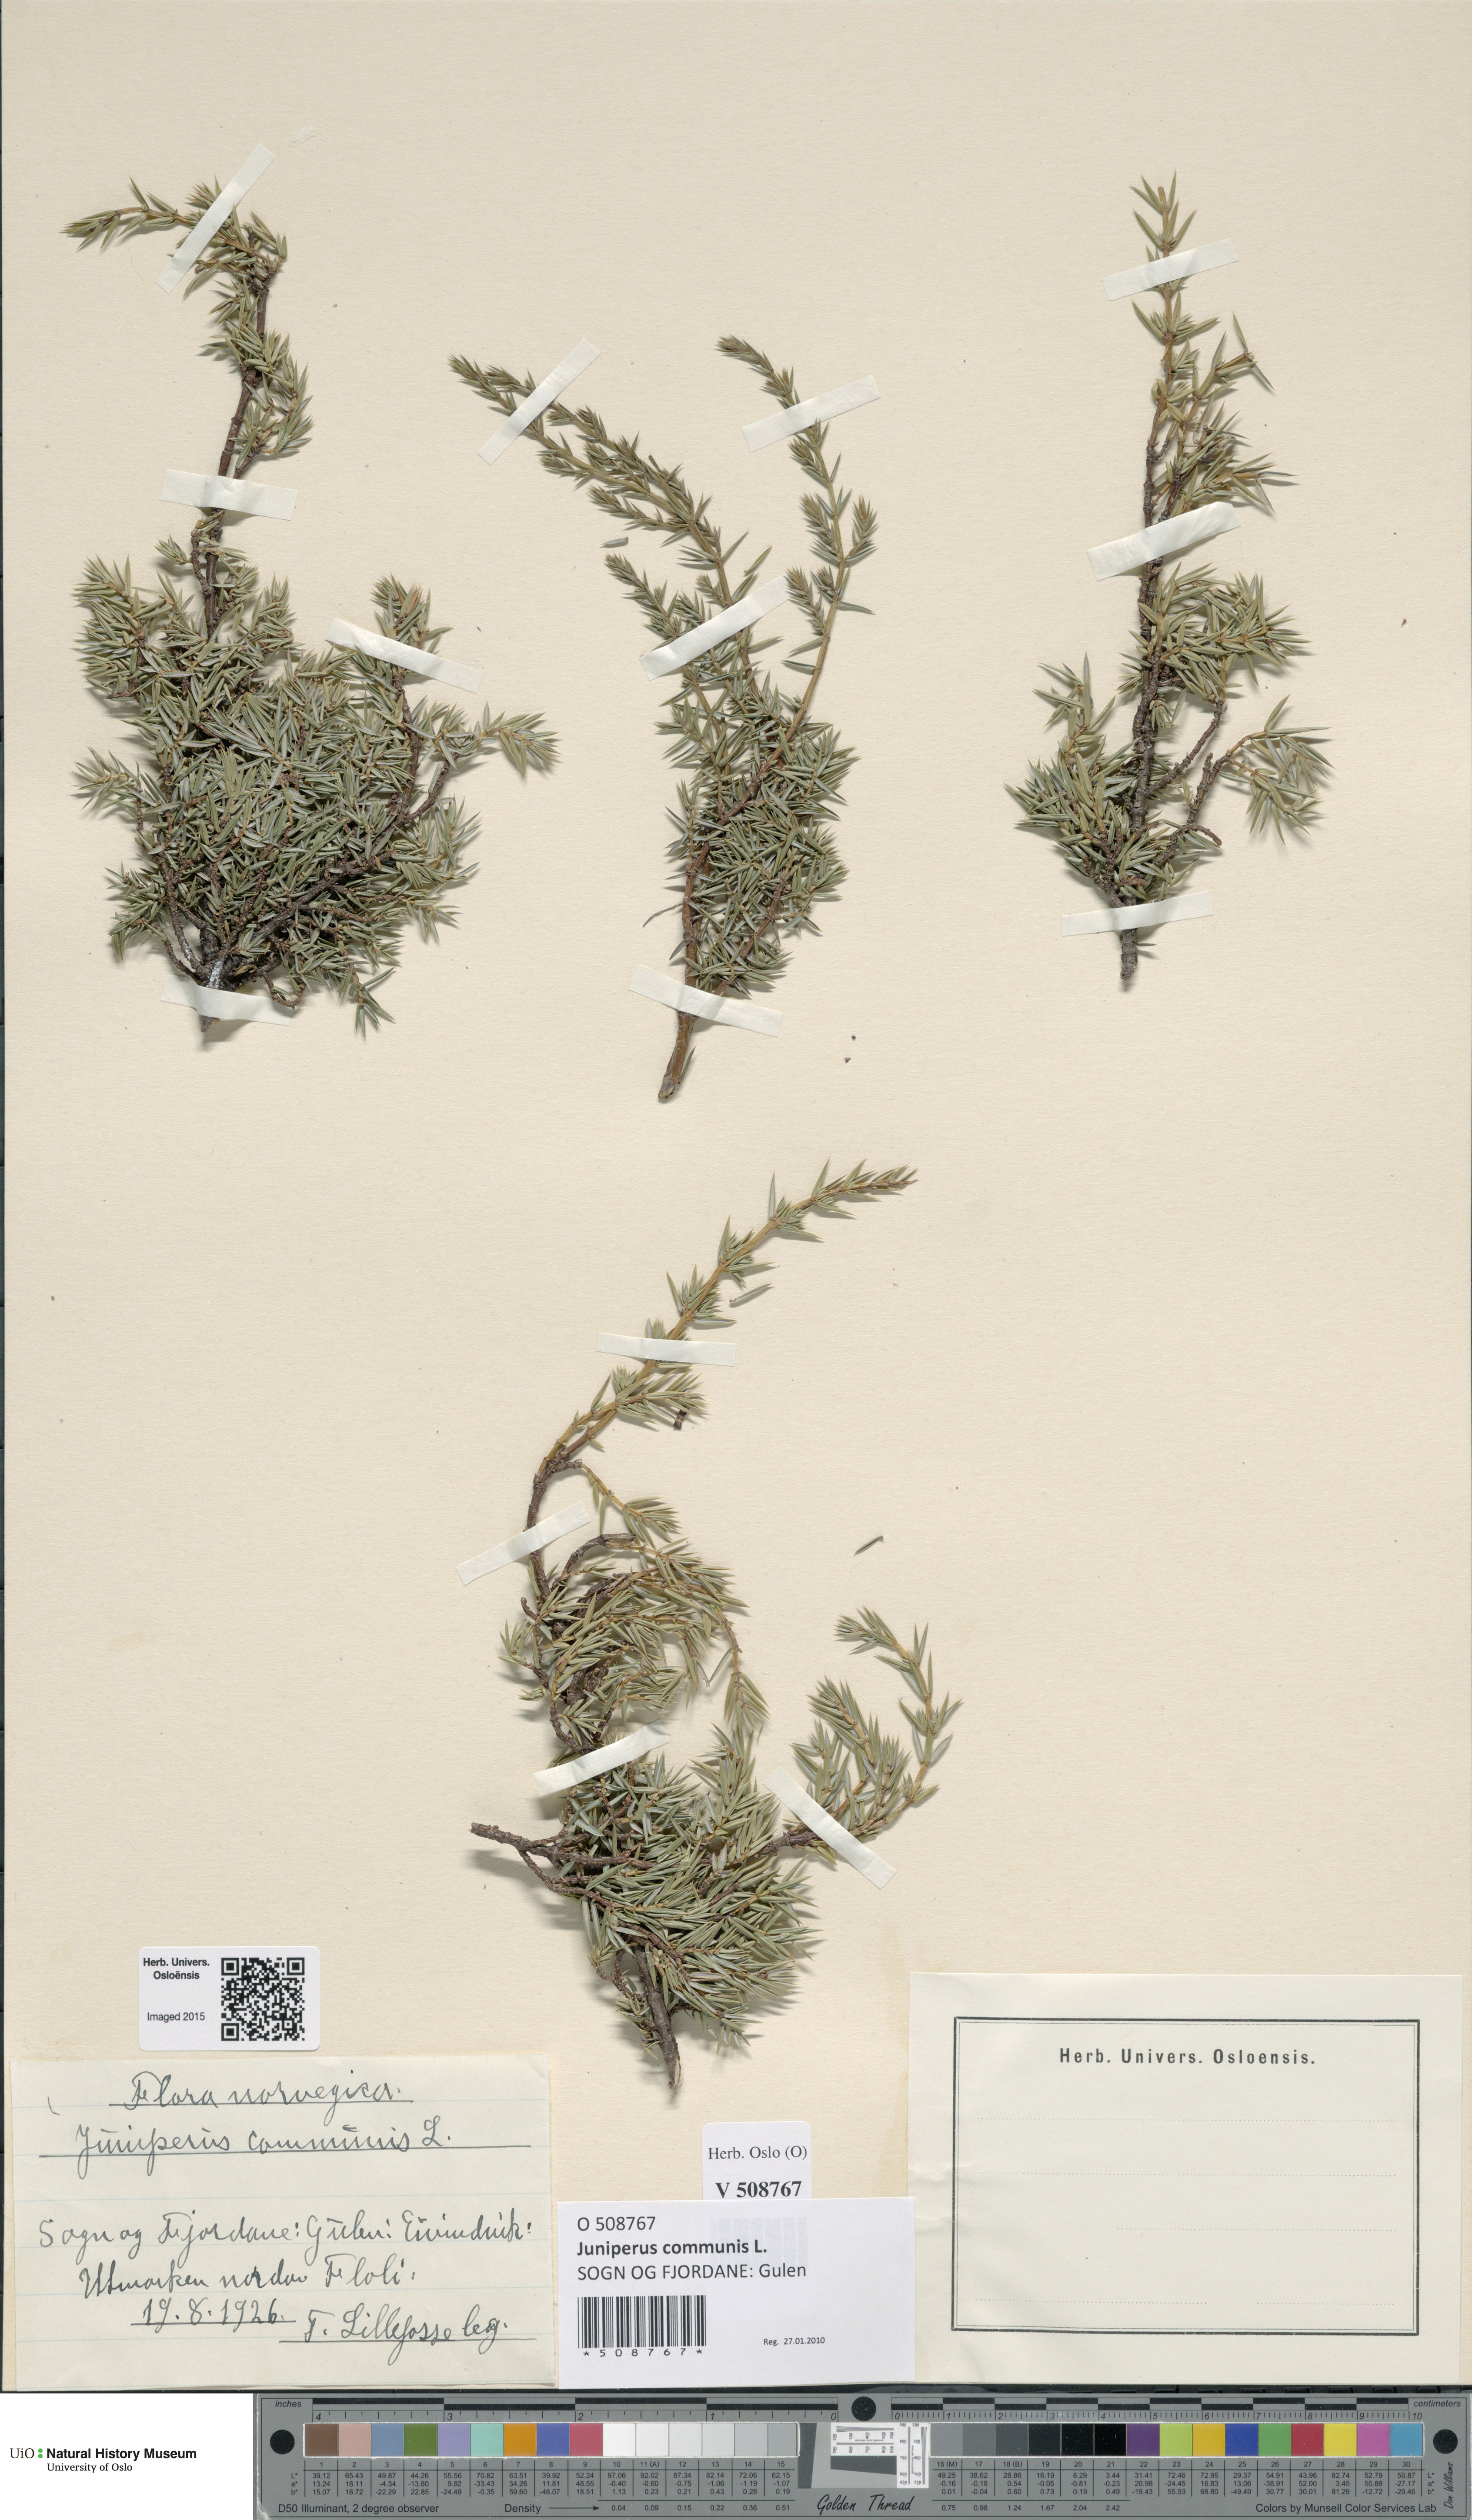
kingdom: Plantae
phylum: Tracheophyta
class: Pinopsida
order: Pinales
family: Cupressaceae
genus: Juniperus
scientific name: Juniperus communis
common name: Common juniper
